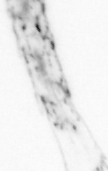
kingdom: Animalia
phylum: Arthropoda
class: Maxillopoda
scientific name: Maxillopoda
